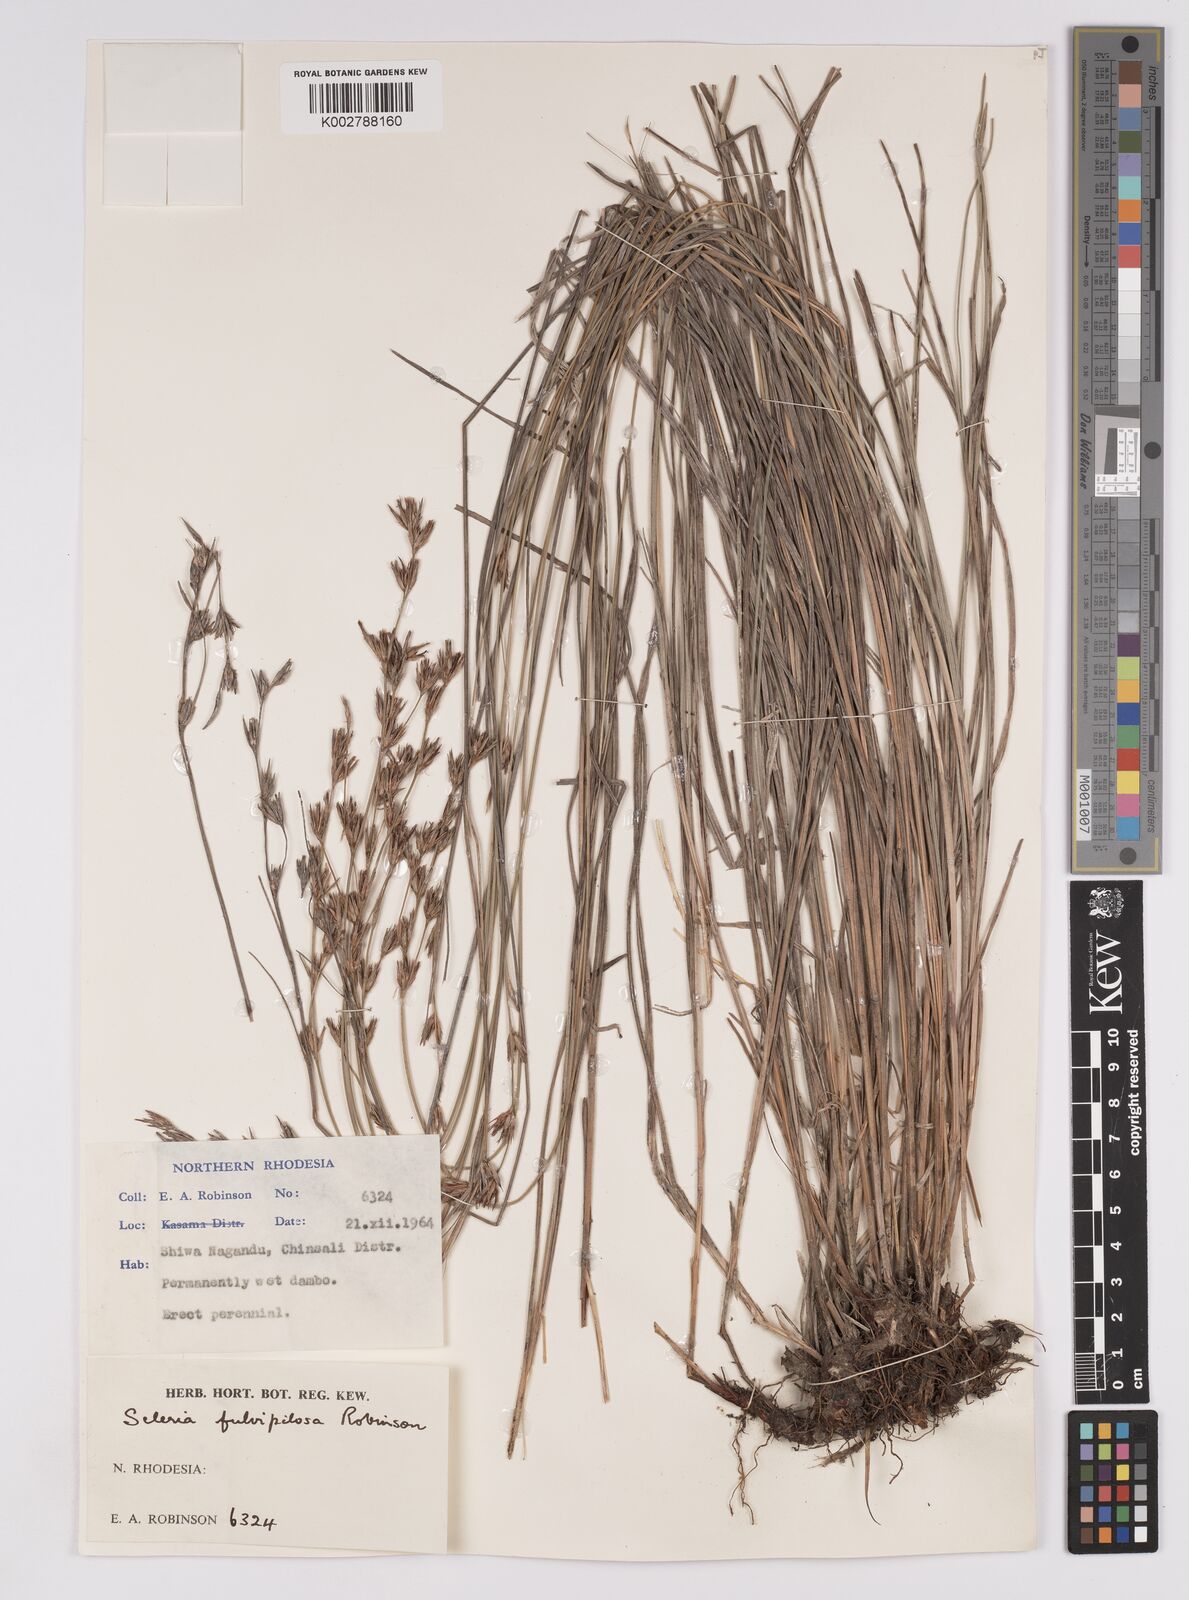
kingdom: Plantae
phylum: Tracheophyta
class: Liliopsida
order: Poales
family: Cyperaceae
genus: Scleria
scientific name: Scleria fulvipilosa
